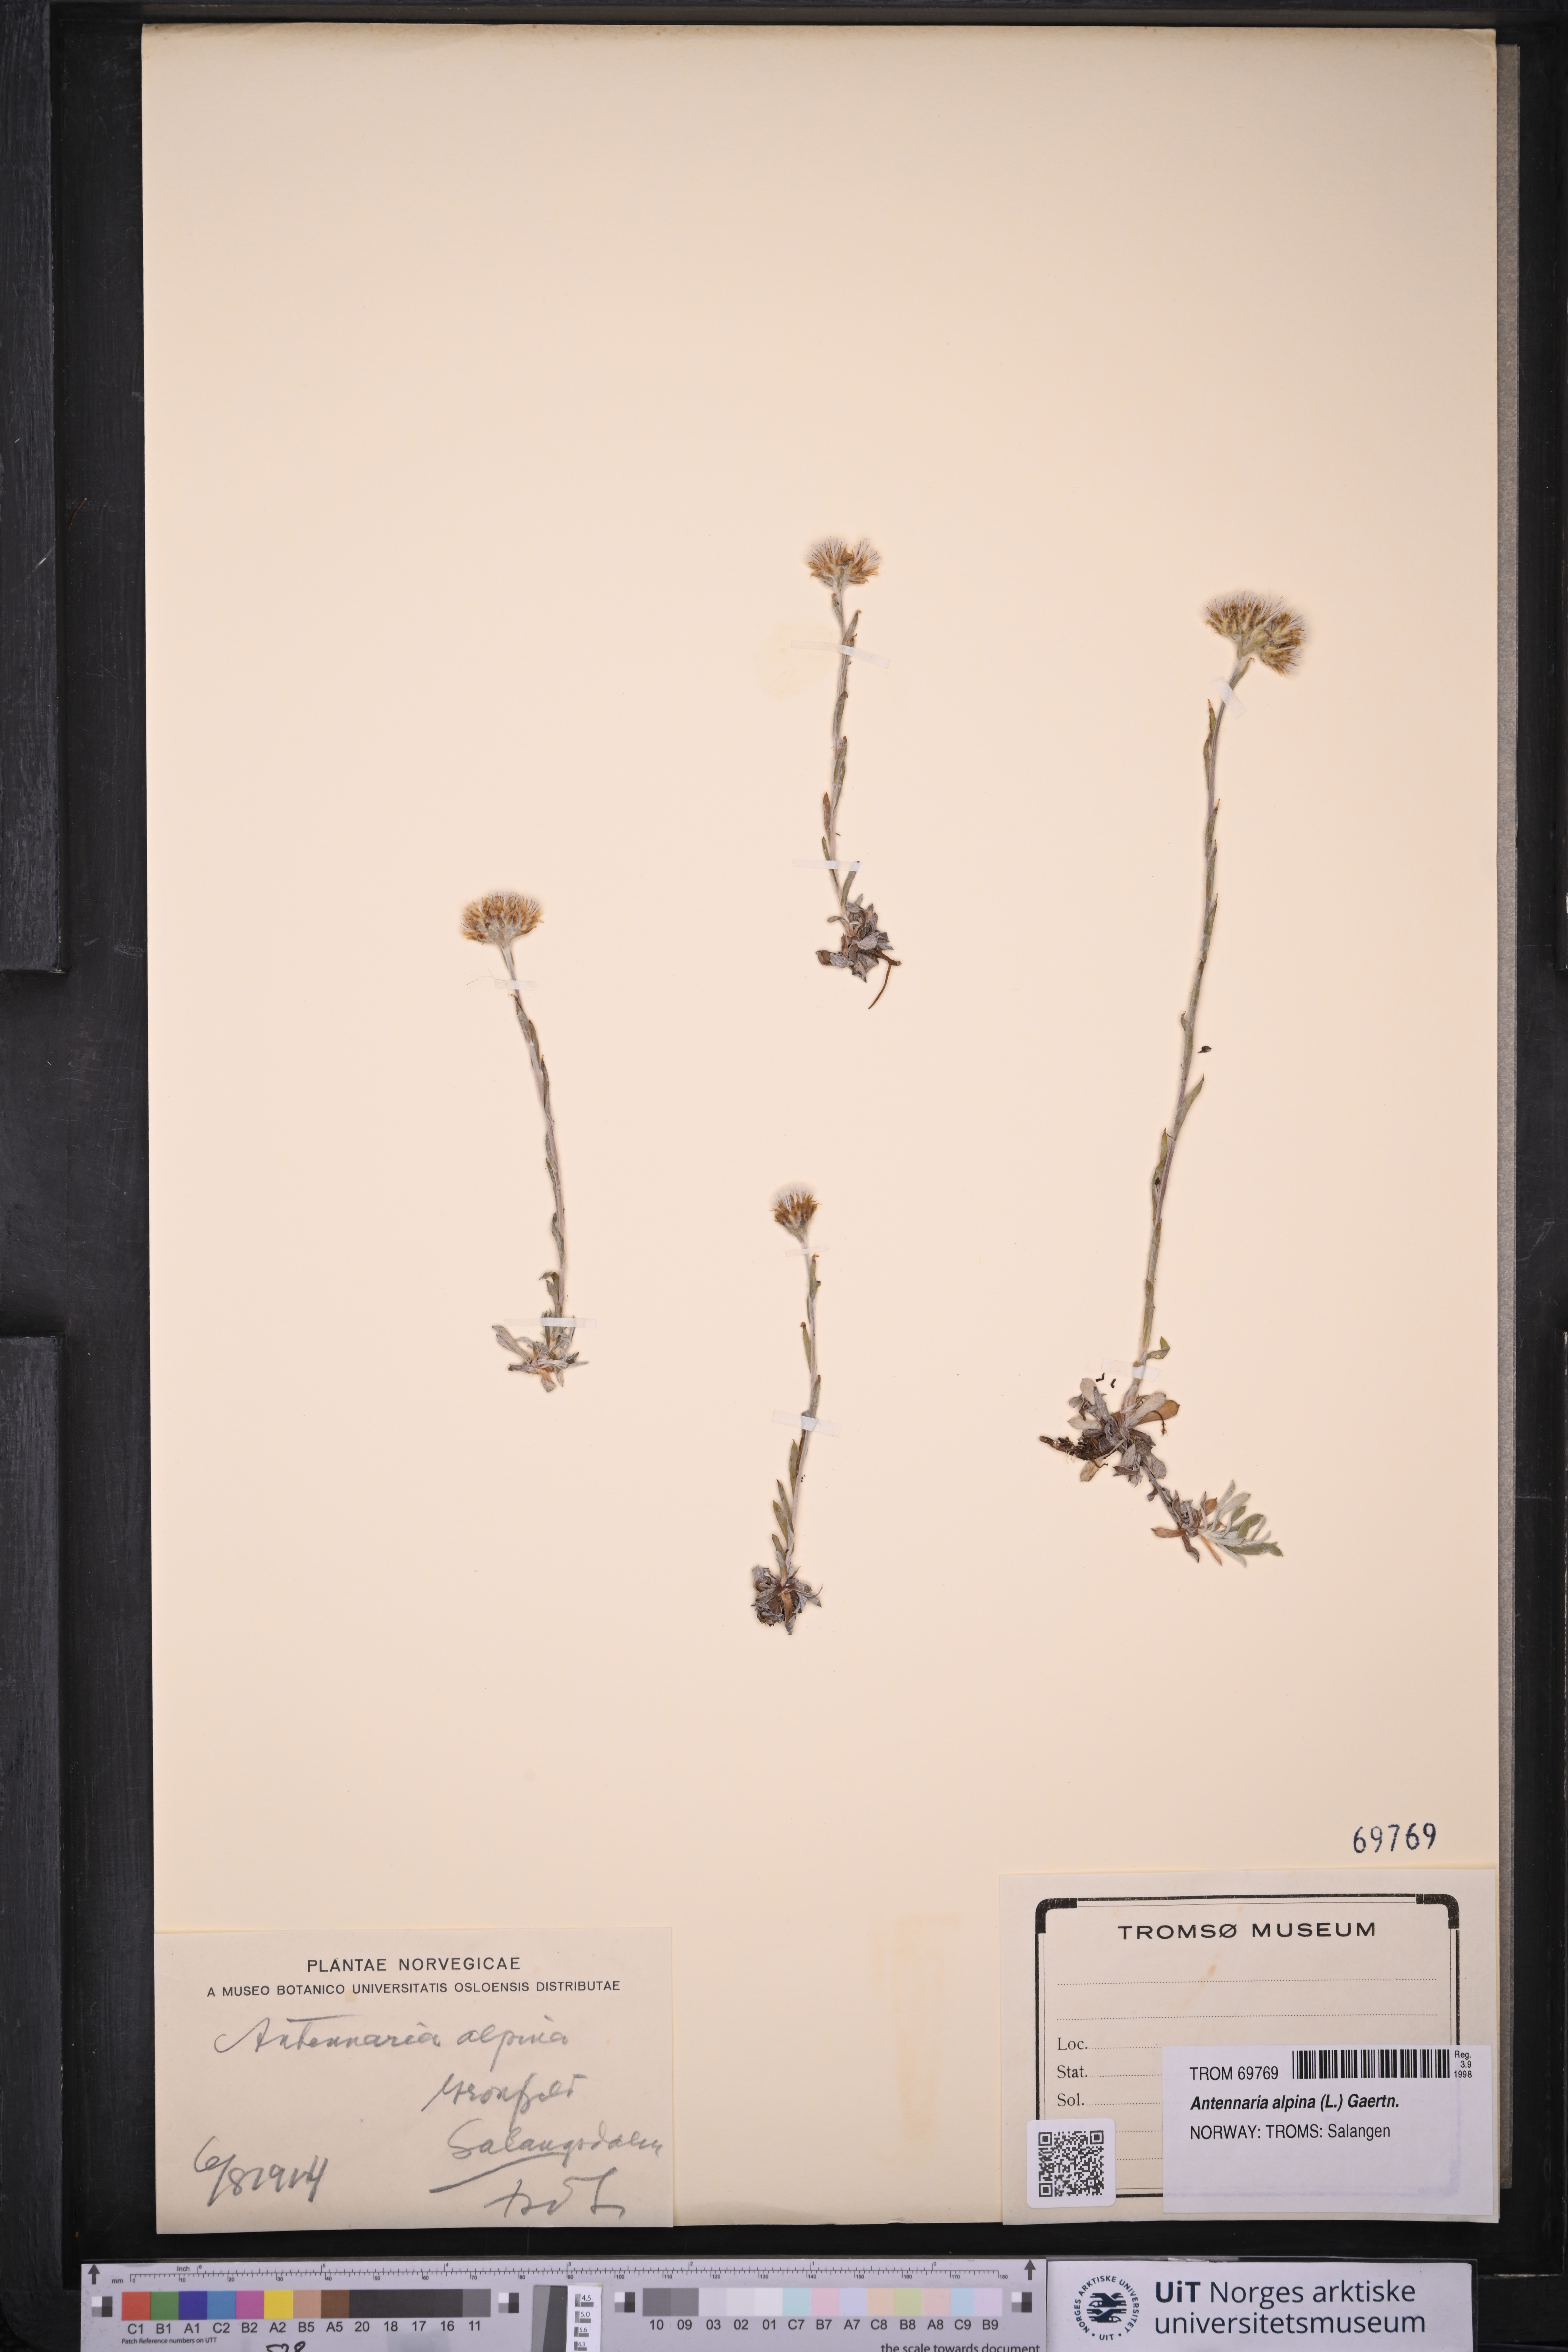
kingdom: Plantae
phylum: Tracheophyta
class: Magnoliopsida
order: Asterales
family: Asteraceae
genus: Antennaria
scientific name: Antennaria alpina
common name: Alpine pussytoes
